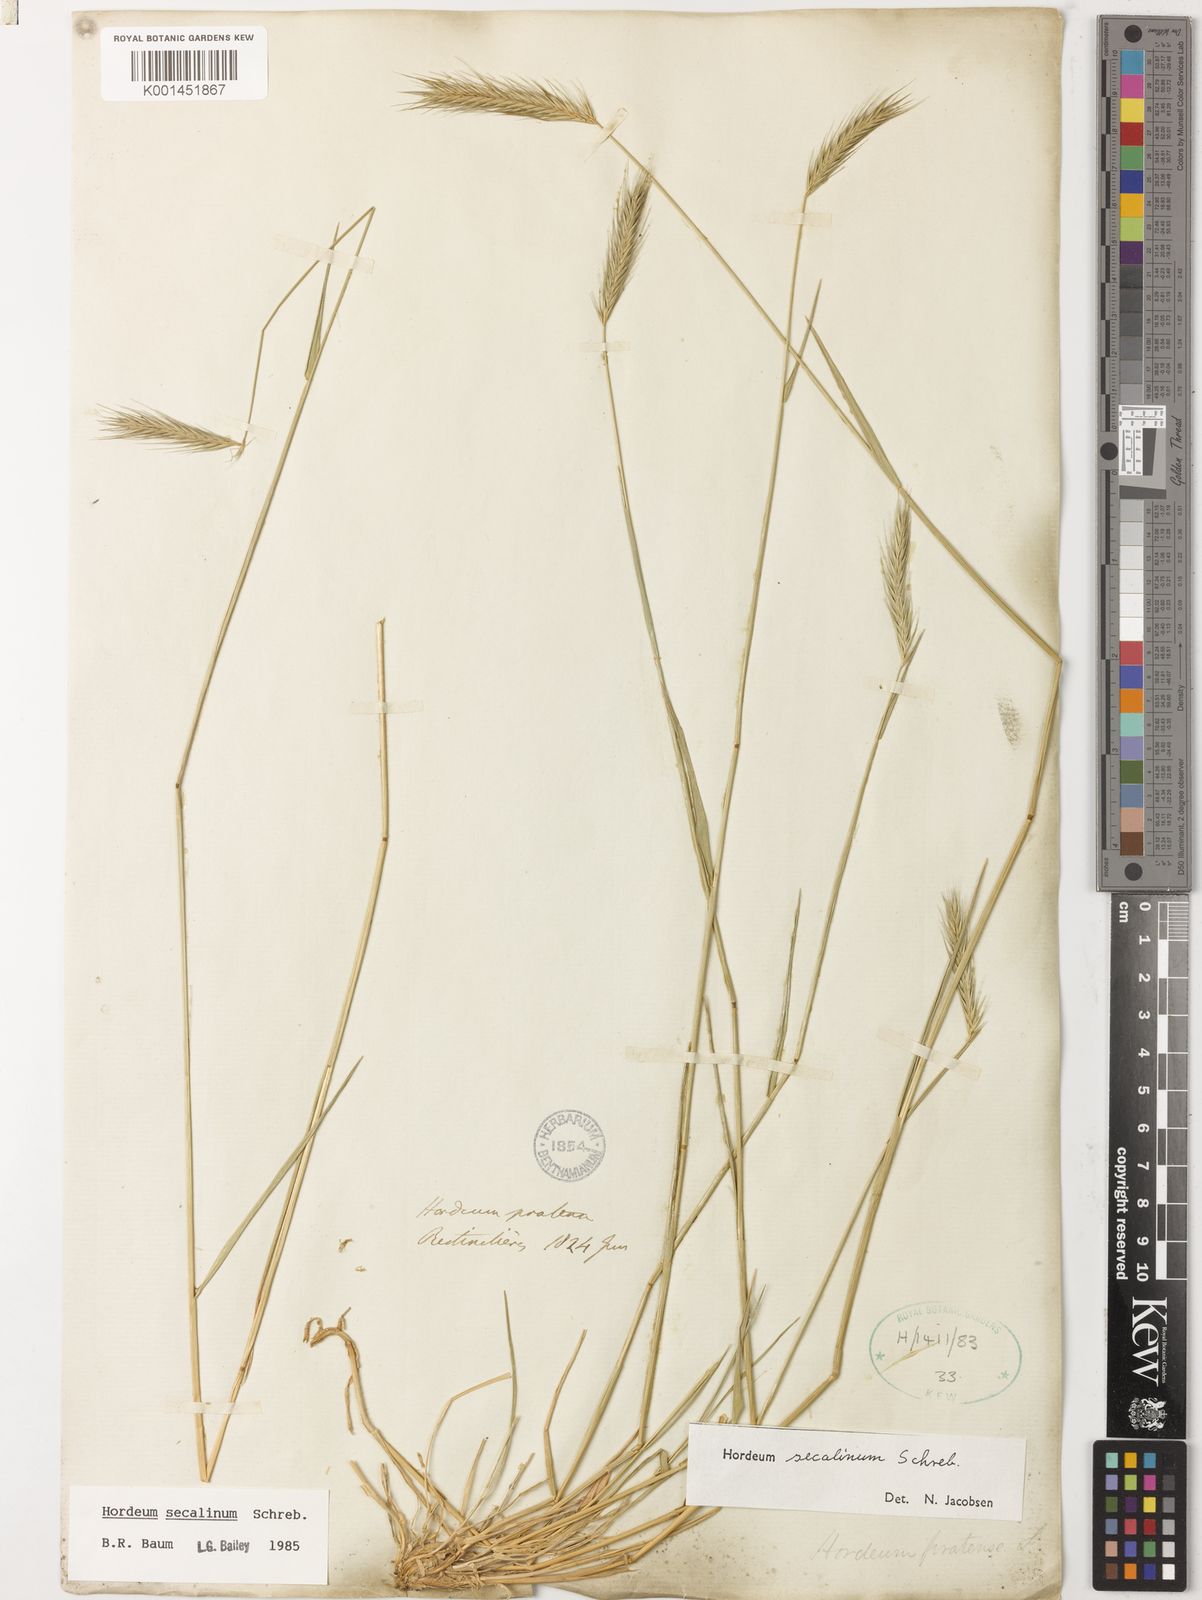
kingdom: Plantae
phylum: Tracheophyta
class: Liliopsida
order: Poales
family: Poaceae
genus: Hordeum
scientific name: Hordeum secalinum
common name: Meadow barley
